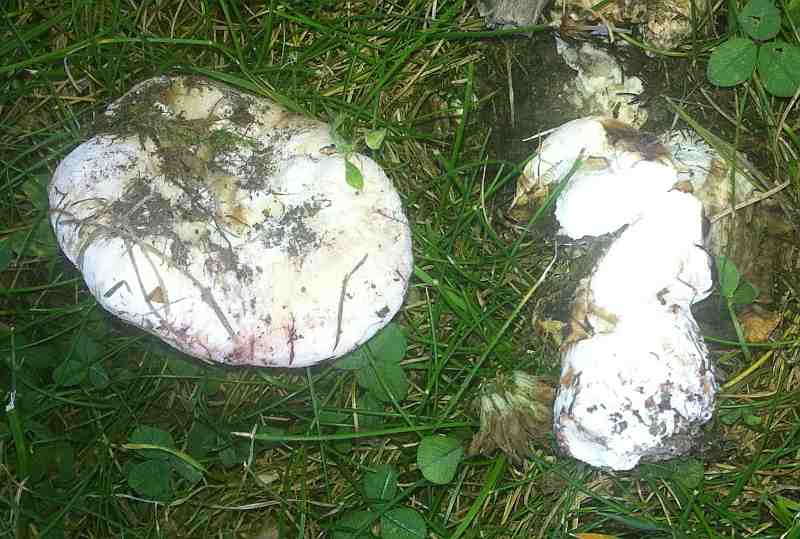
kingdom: Fungi
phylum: Basidiomycota
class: Agaricomycetes
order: Russulales
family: Russulaceae
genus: Lactarius
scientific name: Lactarius controversus
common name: rosabladet mælkehat
